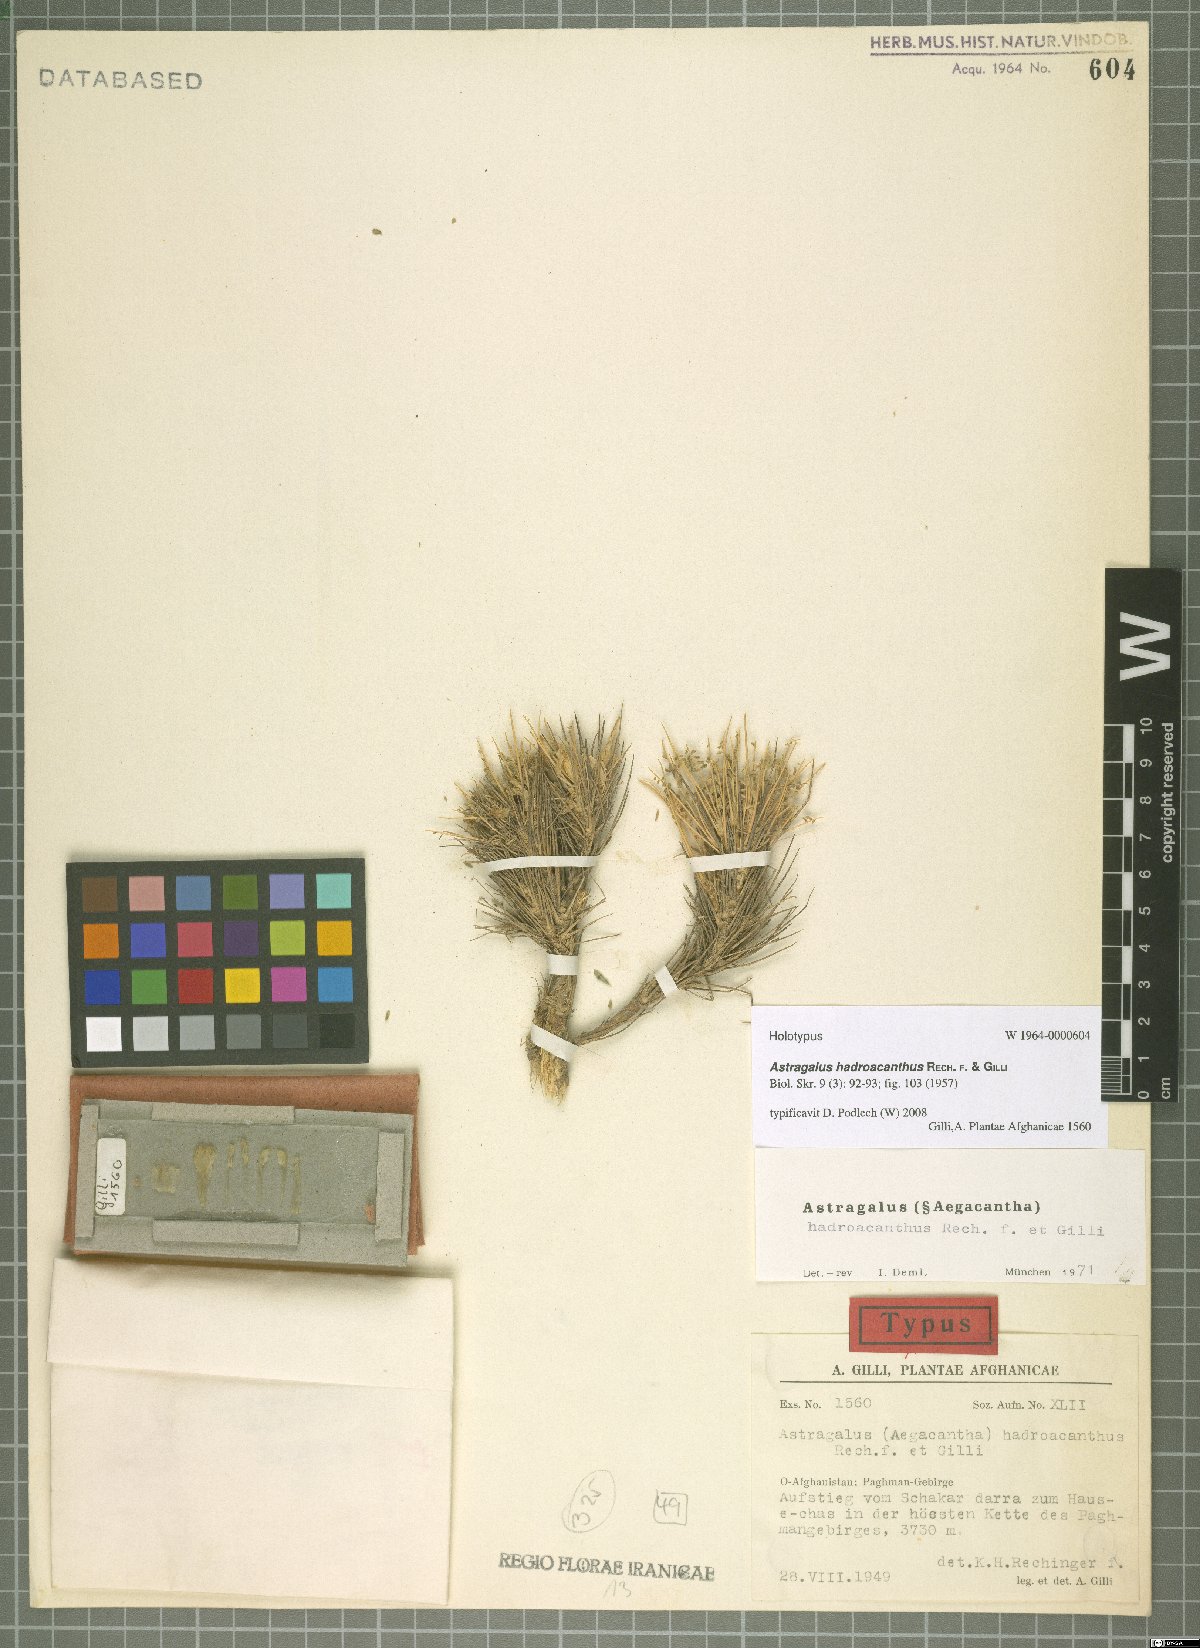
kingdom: Plantae
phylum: Tracheophyta
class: Magnoliopsida
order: Fabales
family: Fabaceae
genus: Astragalus
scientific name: Astragalus hadroacanthus
